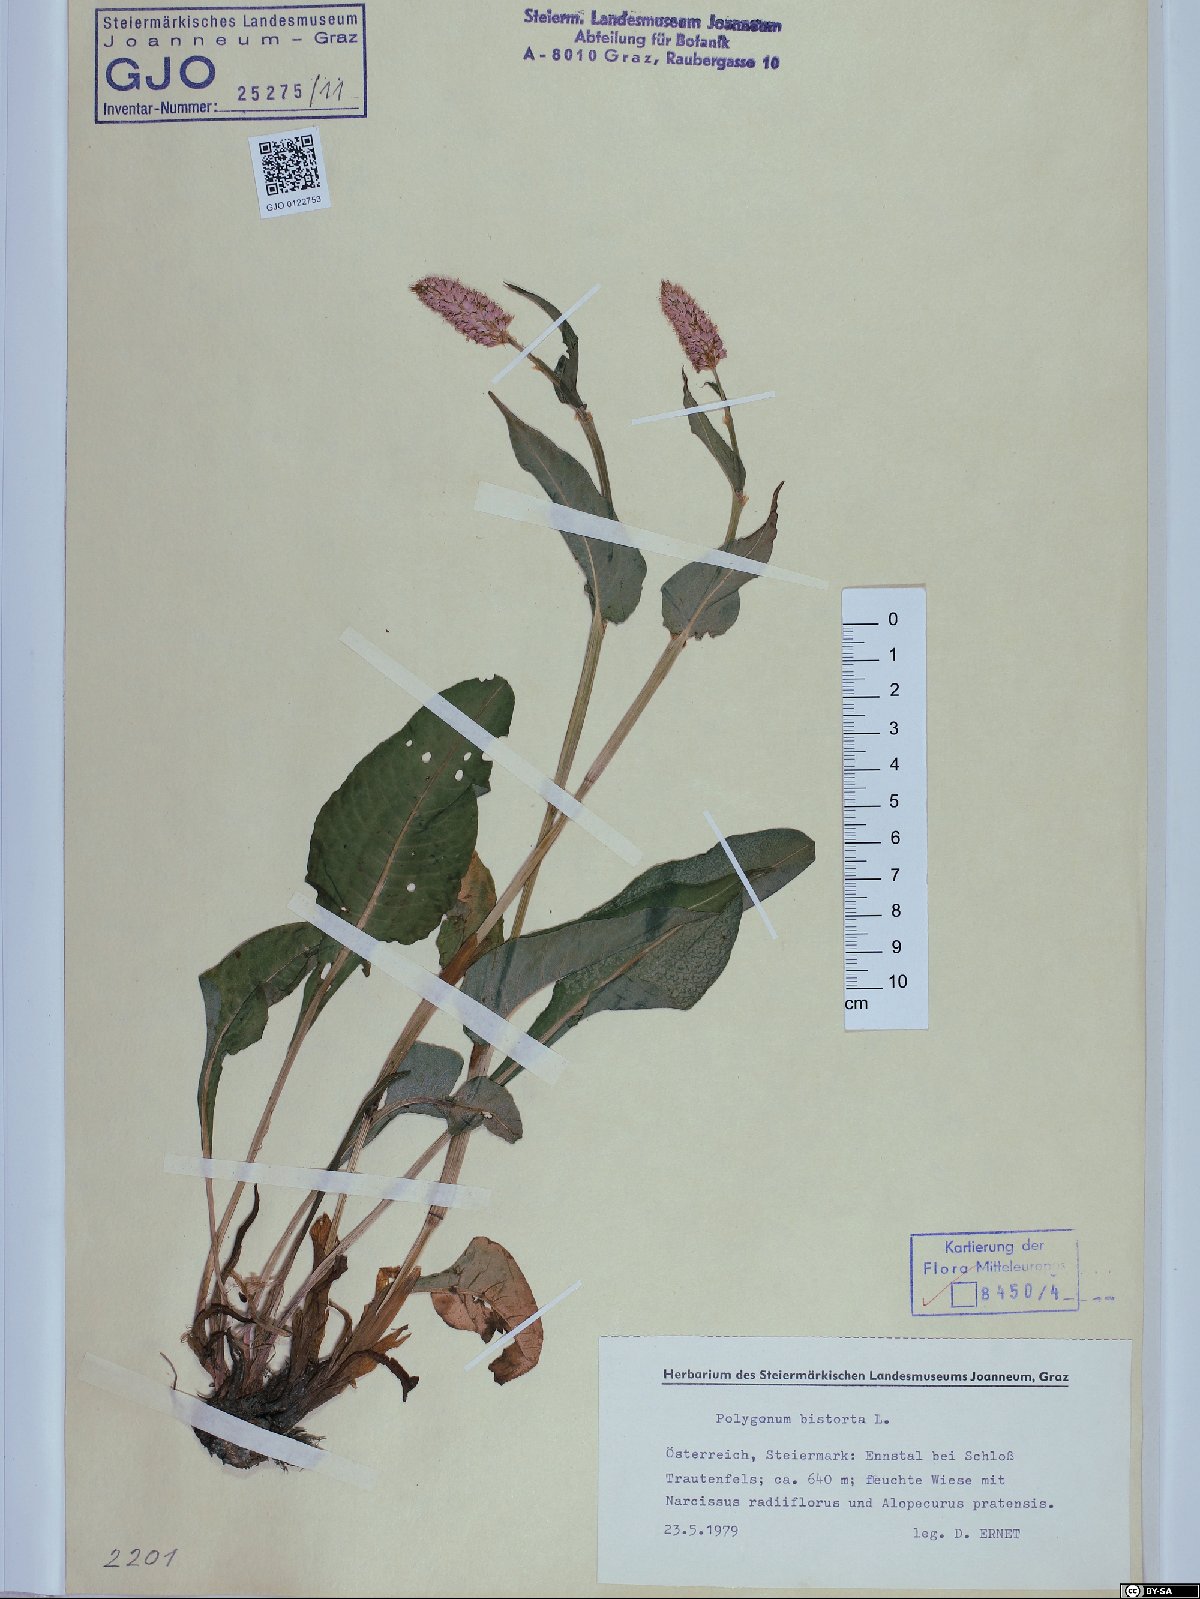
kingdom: Plantae
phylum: Tracheophyta
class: Magnoliopsida
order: Caryophyllales
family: Polygonaceae
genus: Bistorta
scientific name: Bistorta officinalis
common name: Common bistort
